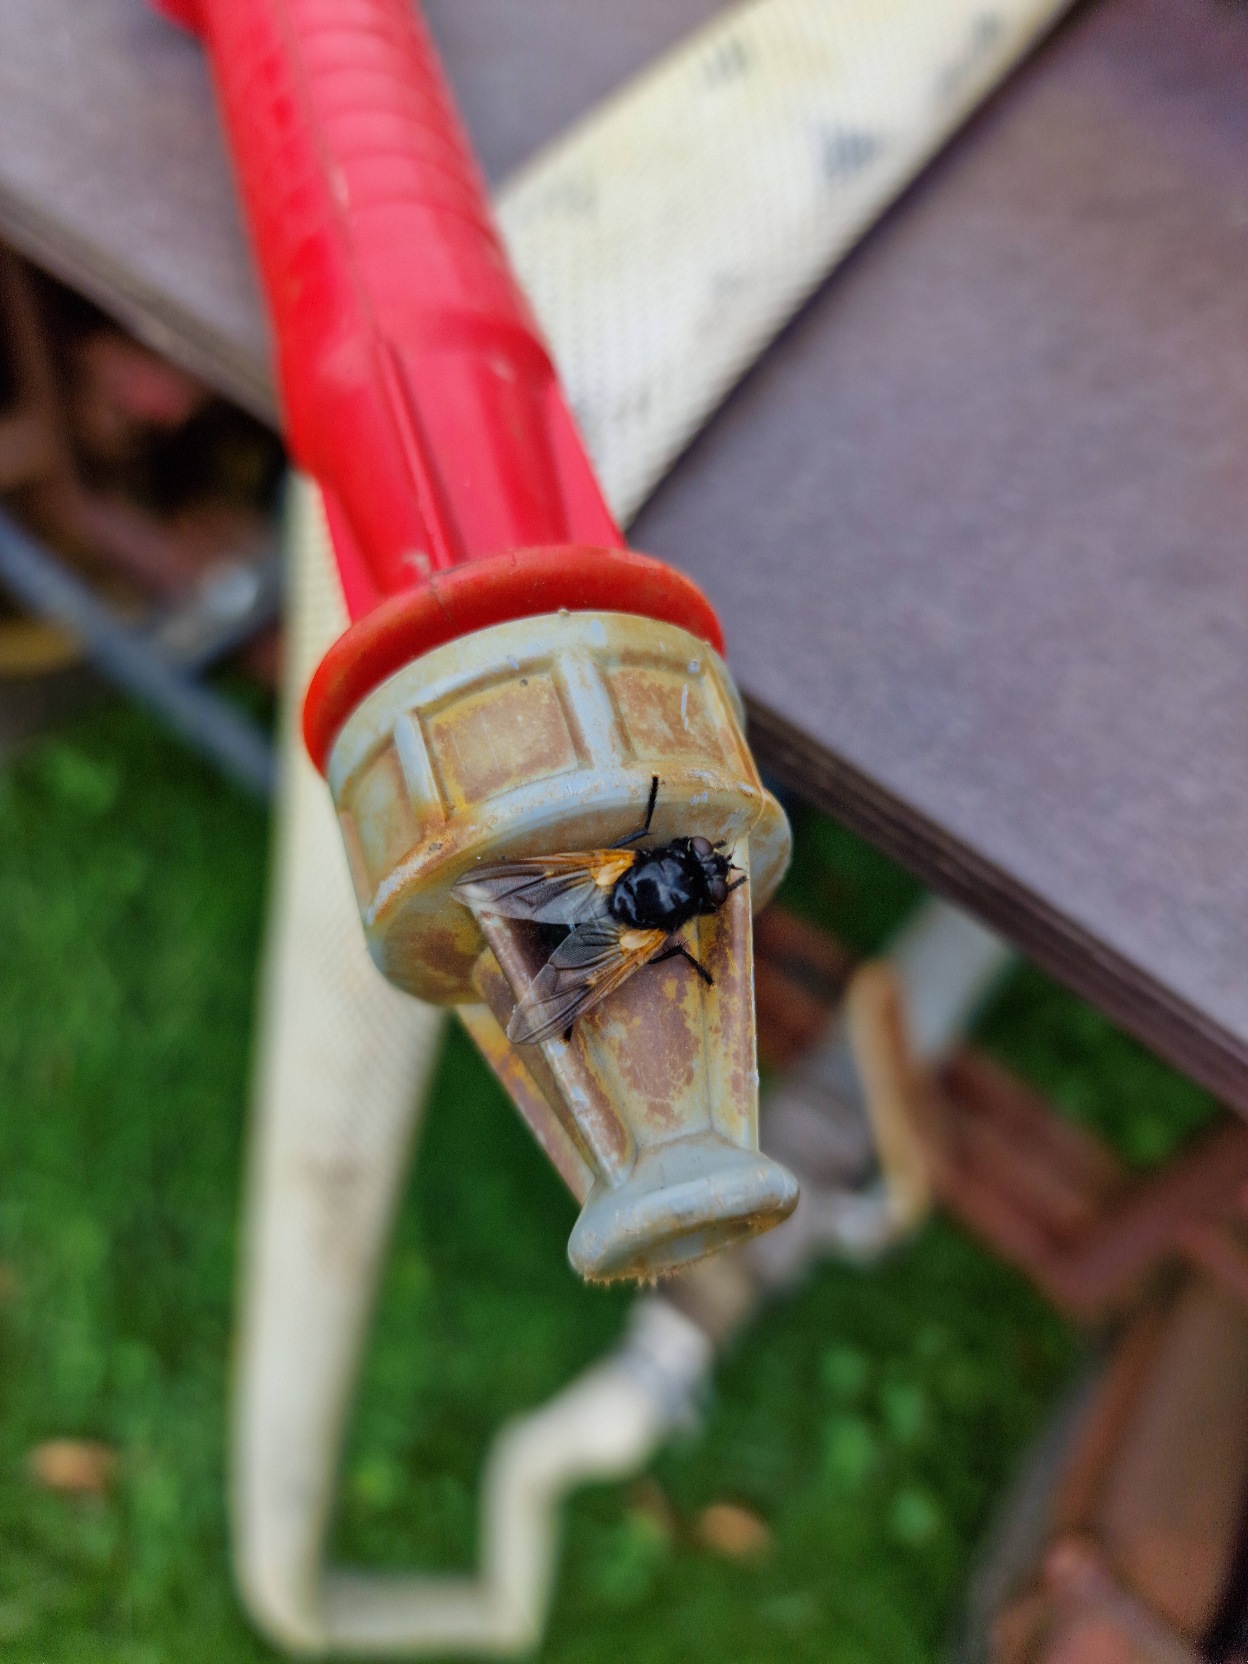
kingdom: Animalia
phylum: Arthropoda
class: Insecta
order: Diptera
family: Muscidae
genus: Mesembrina
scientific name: Mesembrina meridiana
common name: Gulvinget flue
